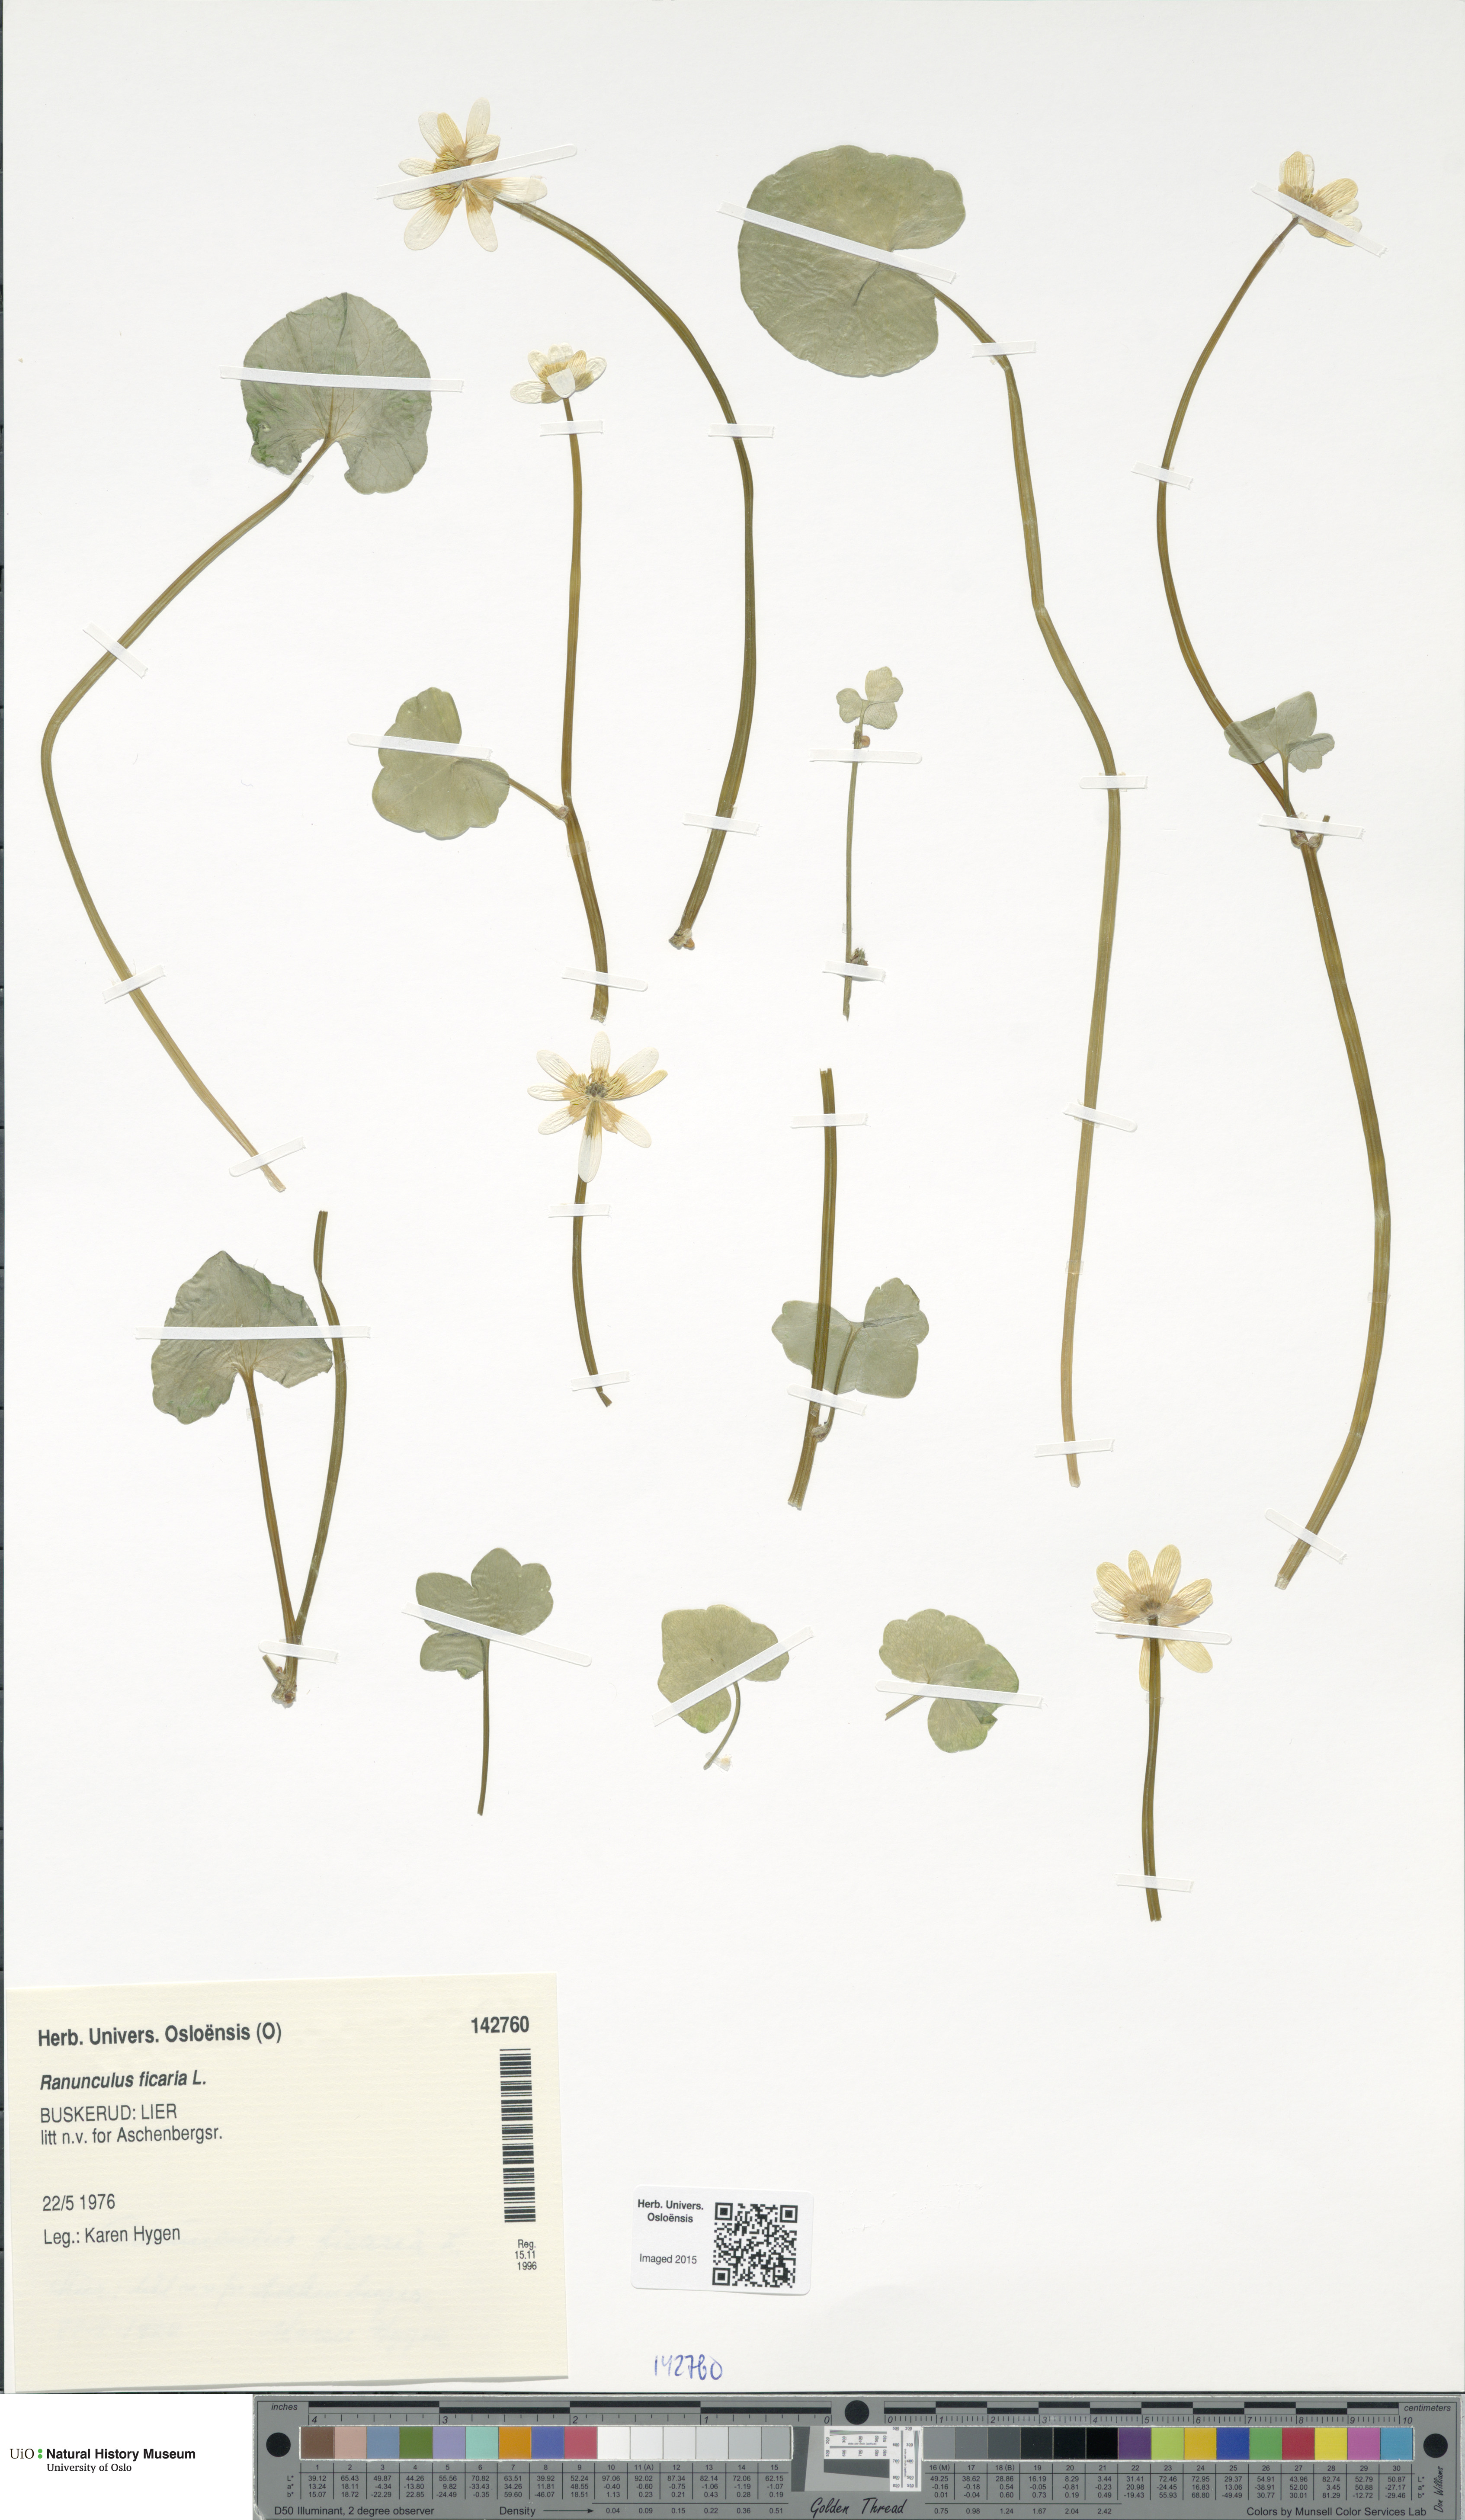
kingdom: Plantae
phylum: Tracheophyta
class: Magnoliopsida
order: Ranunculales
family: Ranunculaceae
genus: Ficaria
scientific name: Ficaria verna
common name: Lesser celandine
